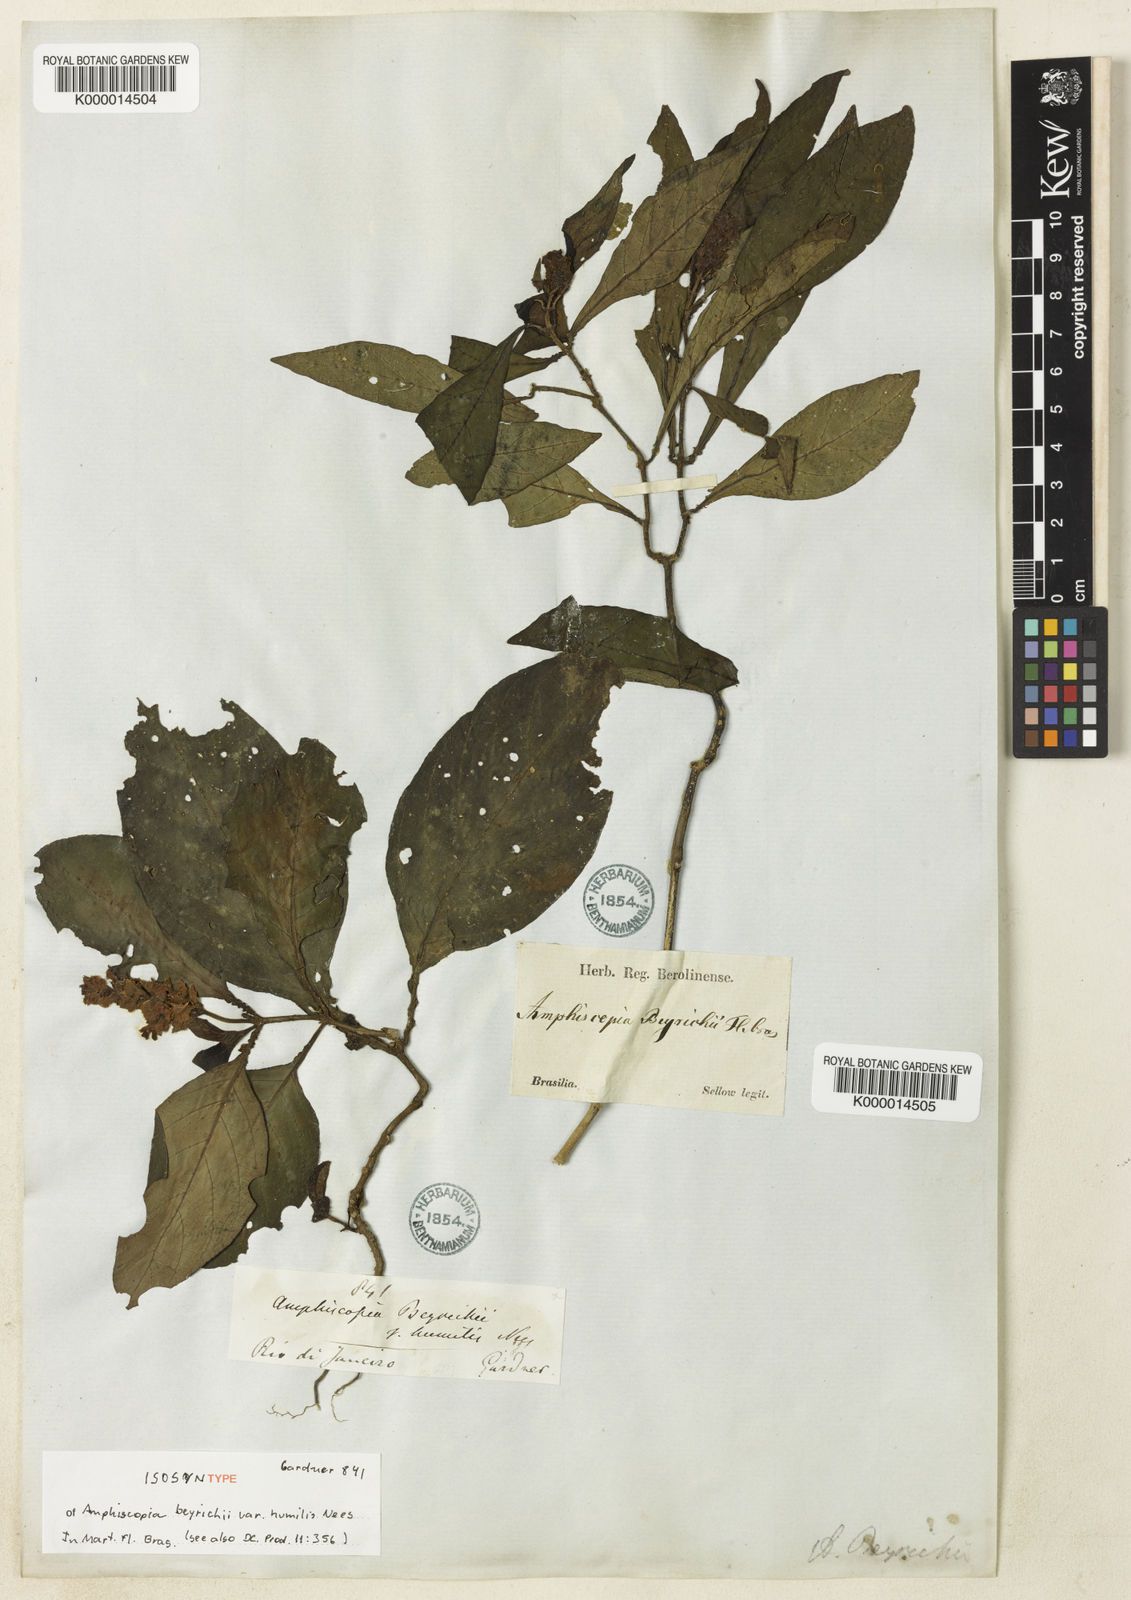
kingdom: Plantae
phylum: Tracheophyta
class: Magnoliopsida
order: Lamiales
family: Acanthaceae
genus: Dianthera
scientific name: Dianthera brasiliensis
